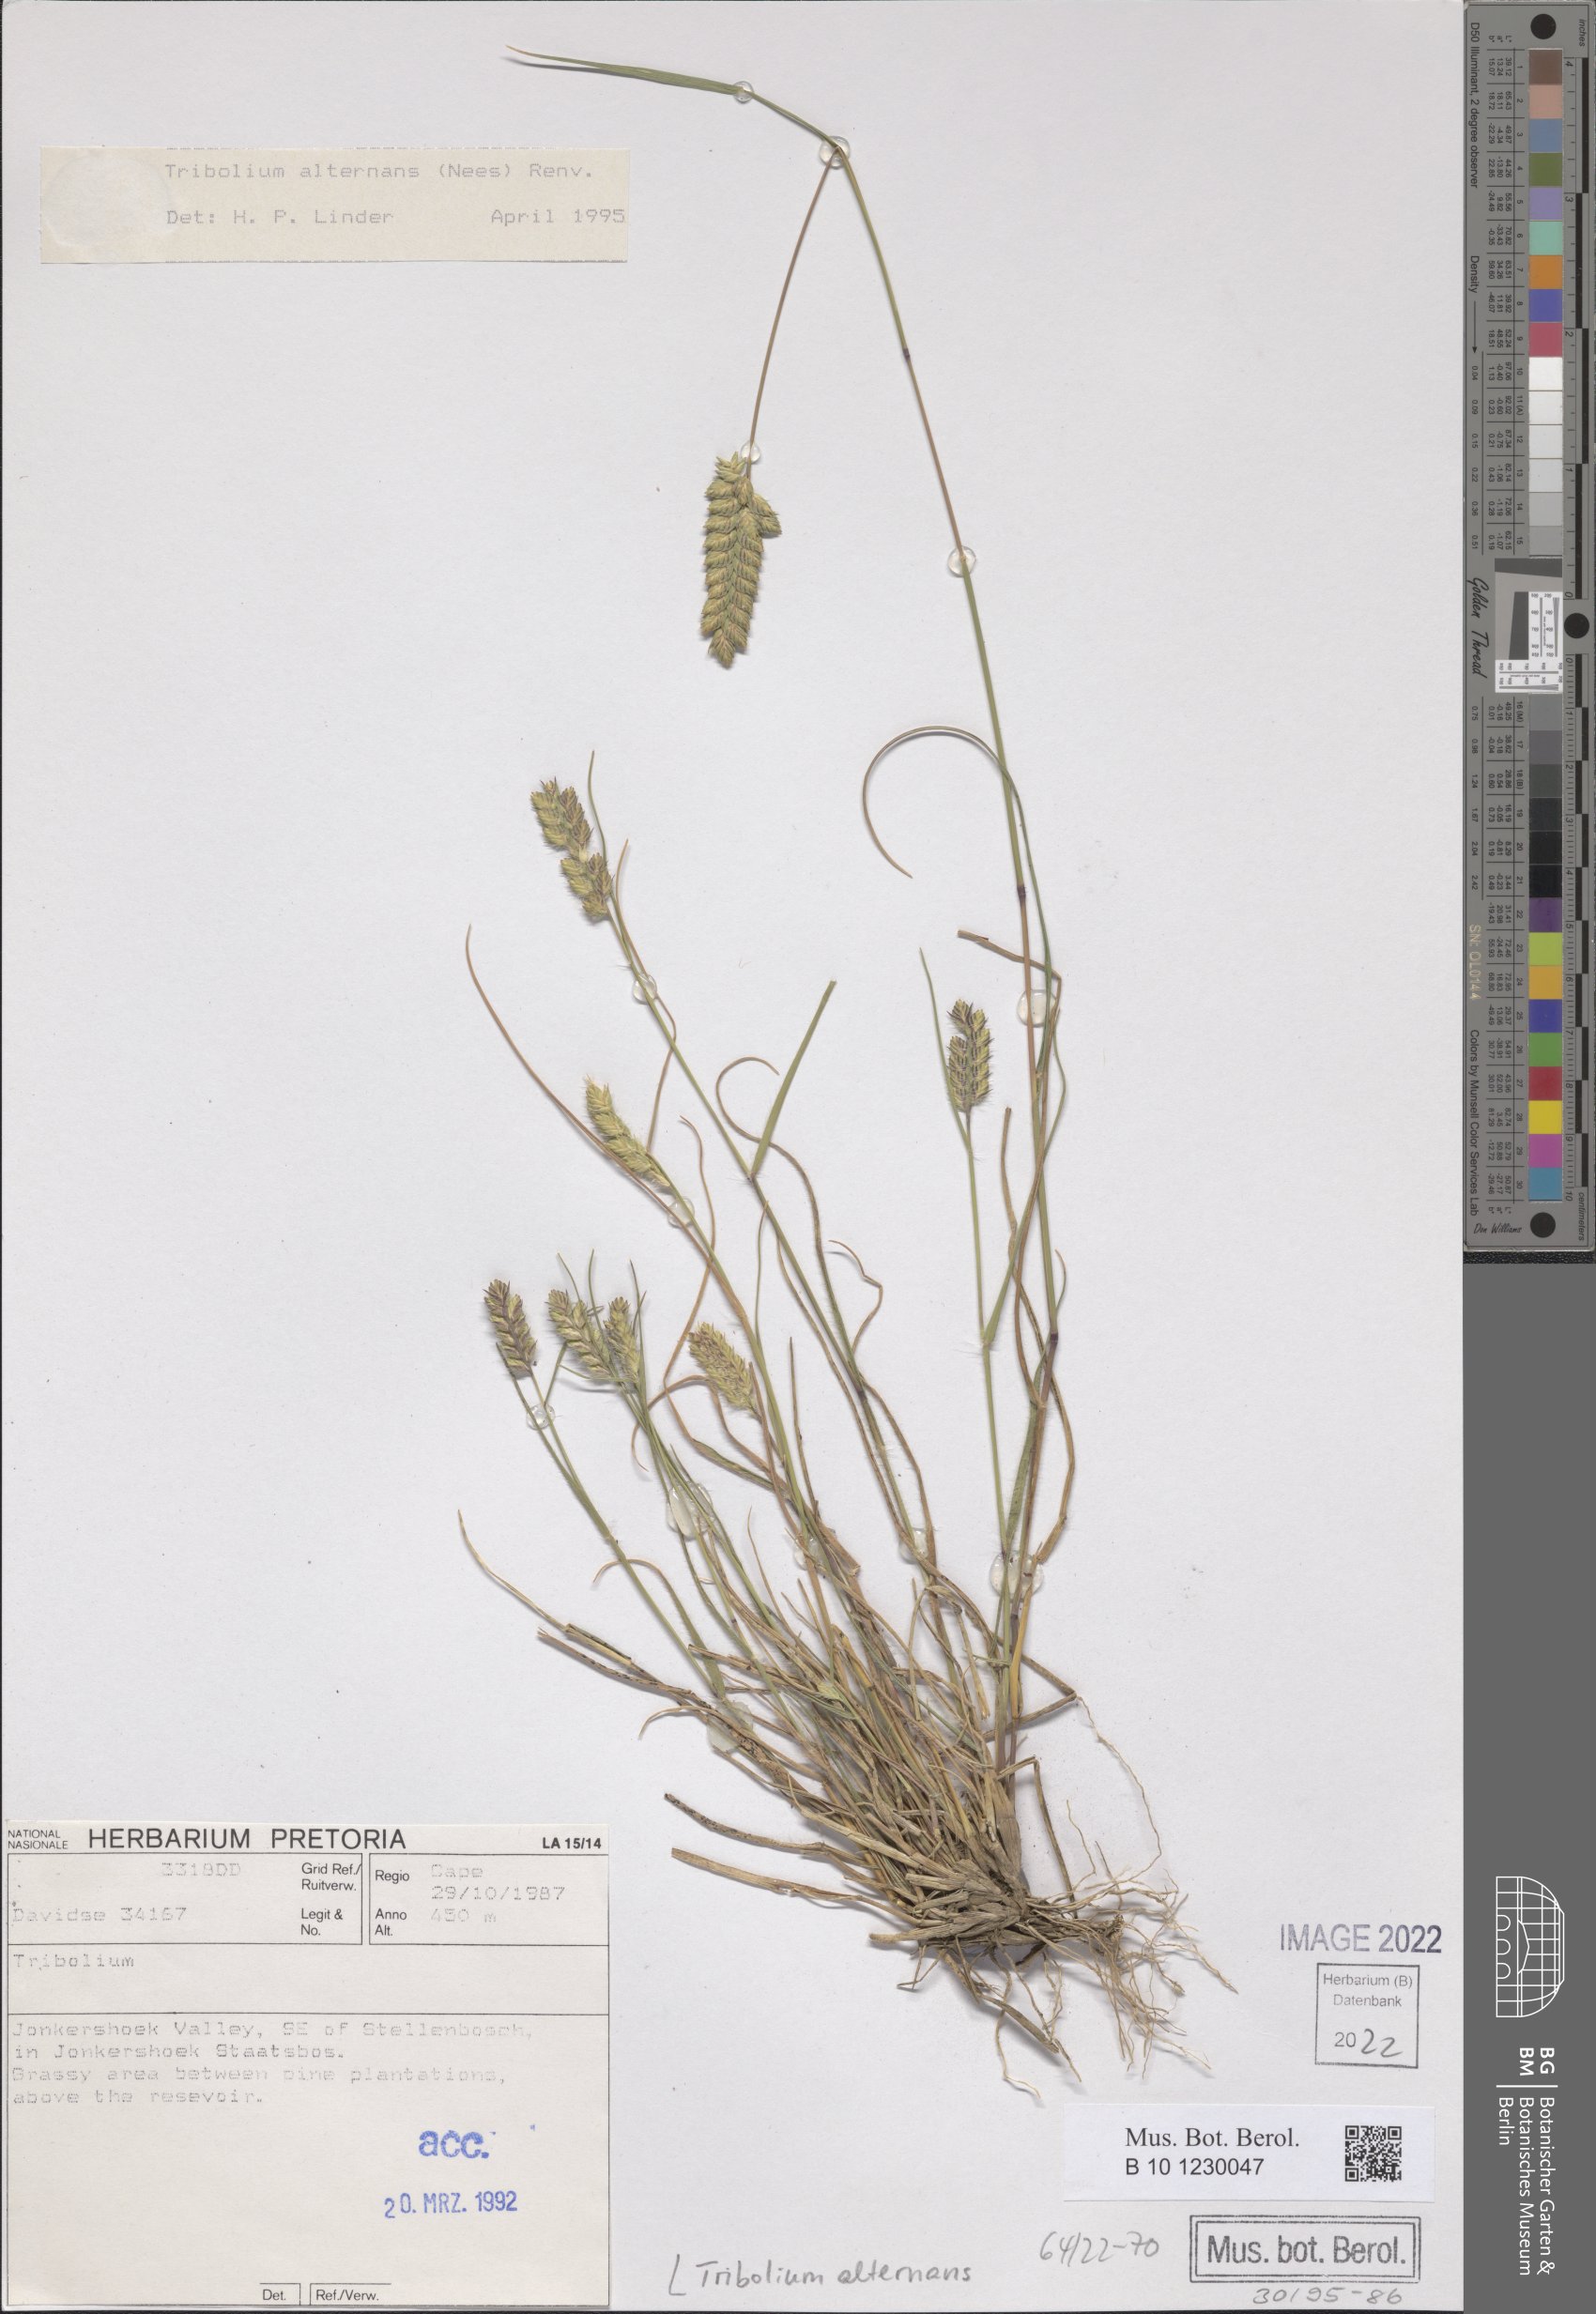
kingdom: Plantae
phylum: Tracheophyta
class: Liliopsida
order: Poales
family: Poaceae
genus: Tribolium
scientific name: Tribolium alternans
